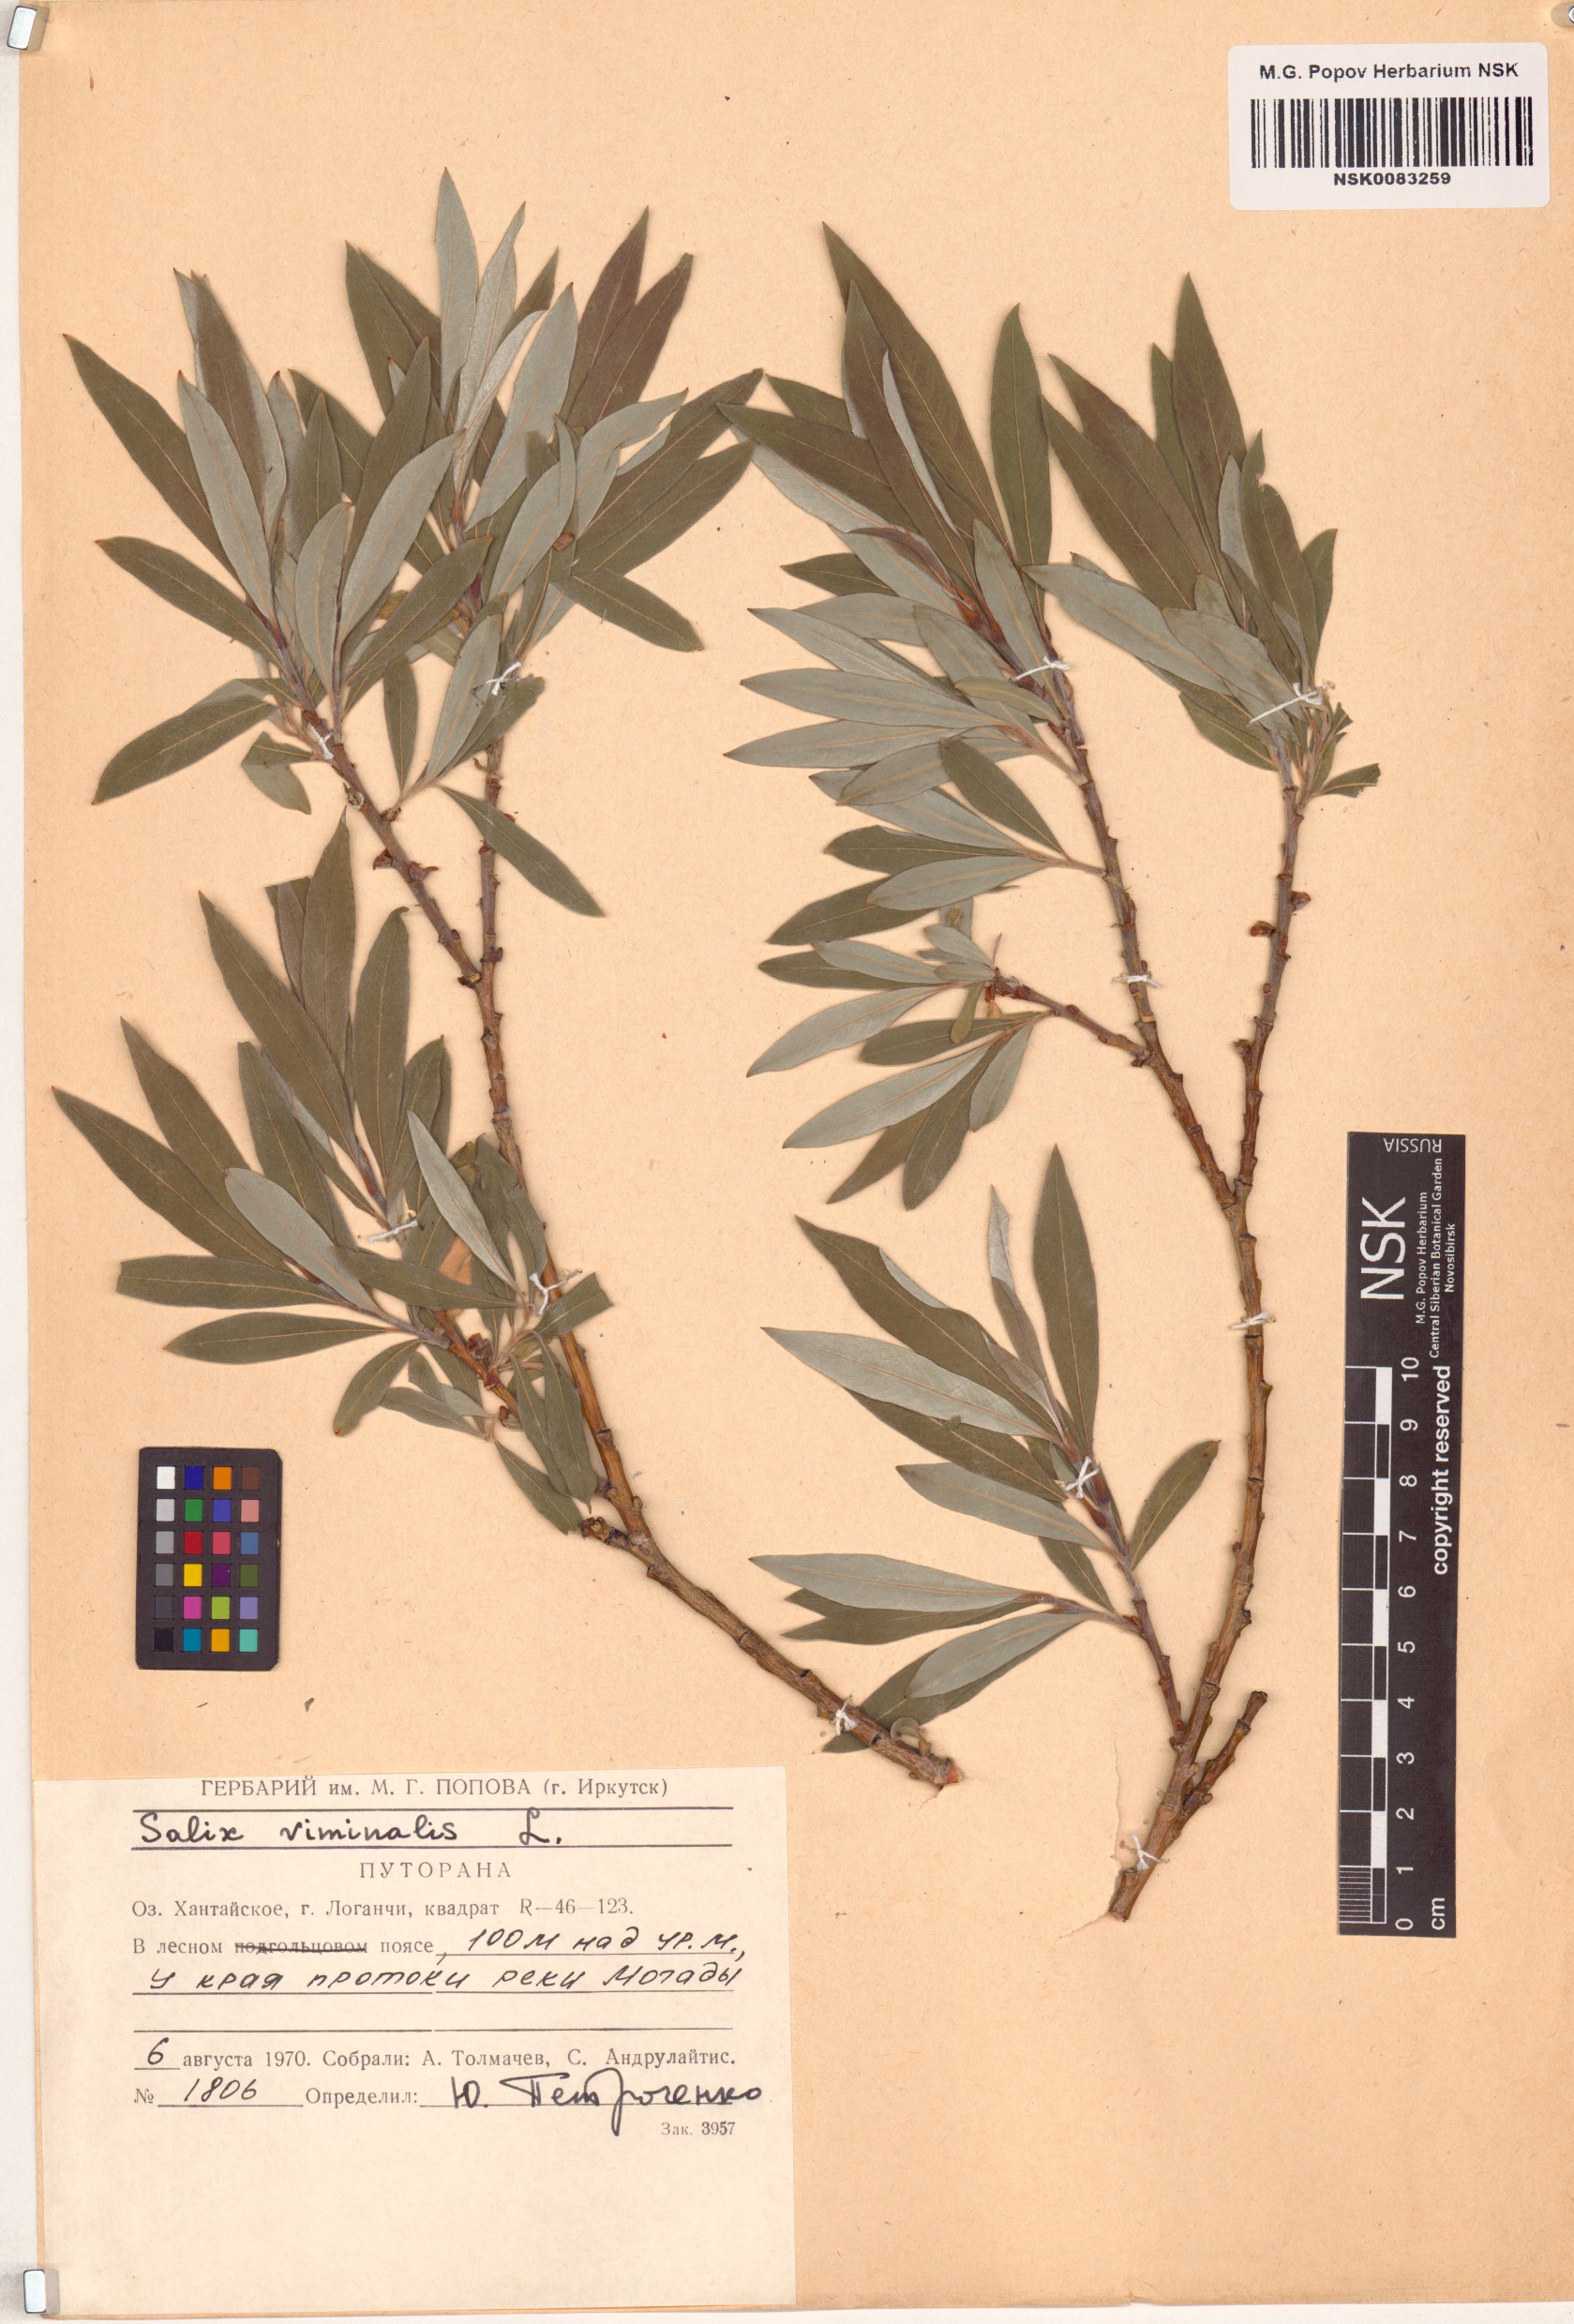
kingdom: Plantae
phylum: Tracheophyta
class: Magnoliopsida
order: Malpighiales
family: Salicaceae
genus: Salix
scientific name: Salix viminalis
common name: Osier
